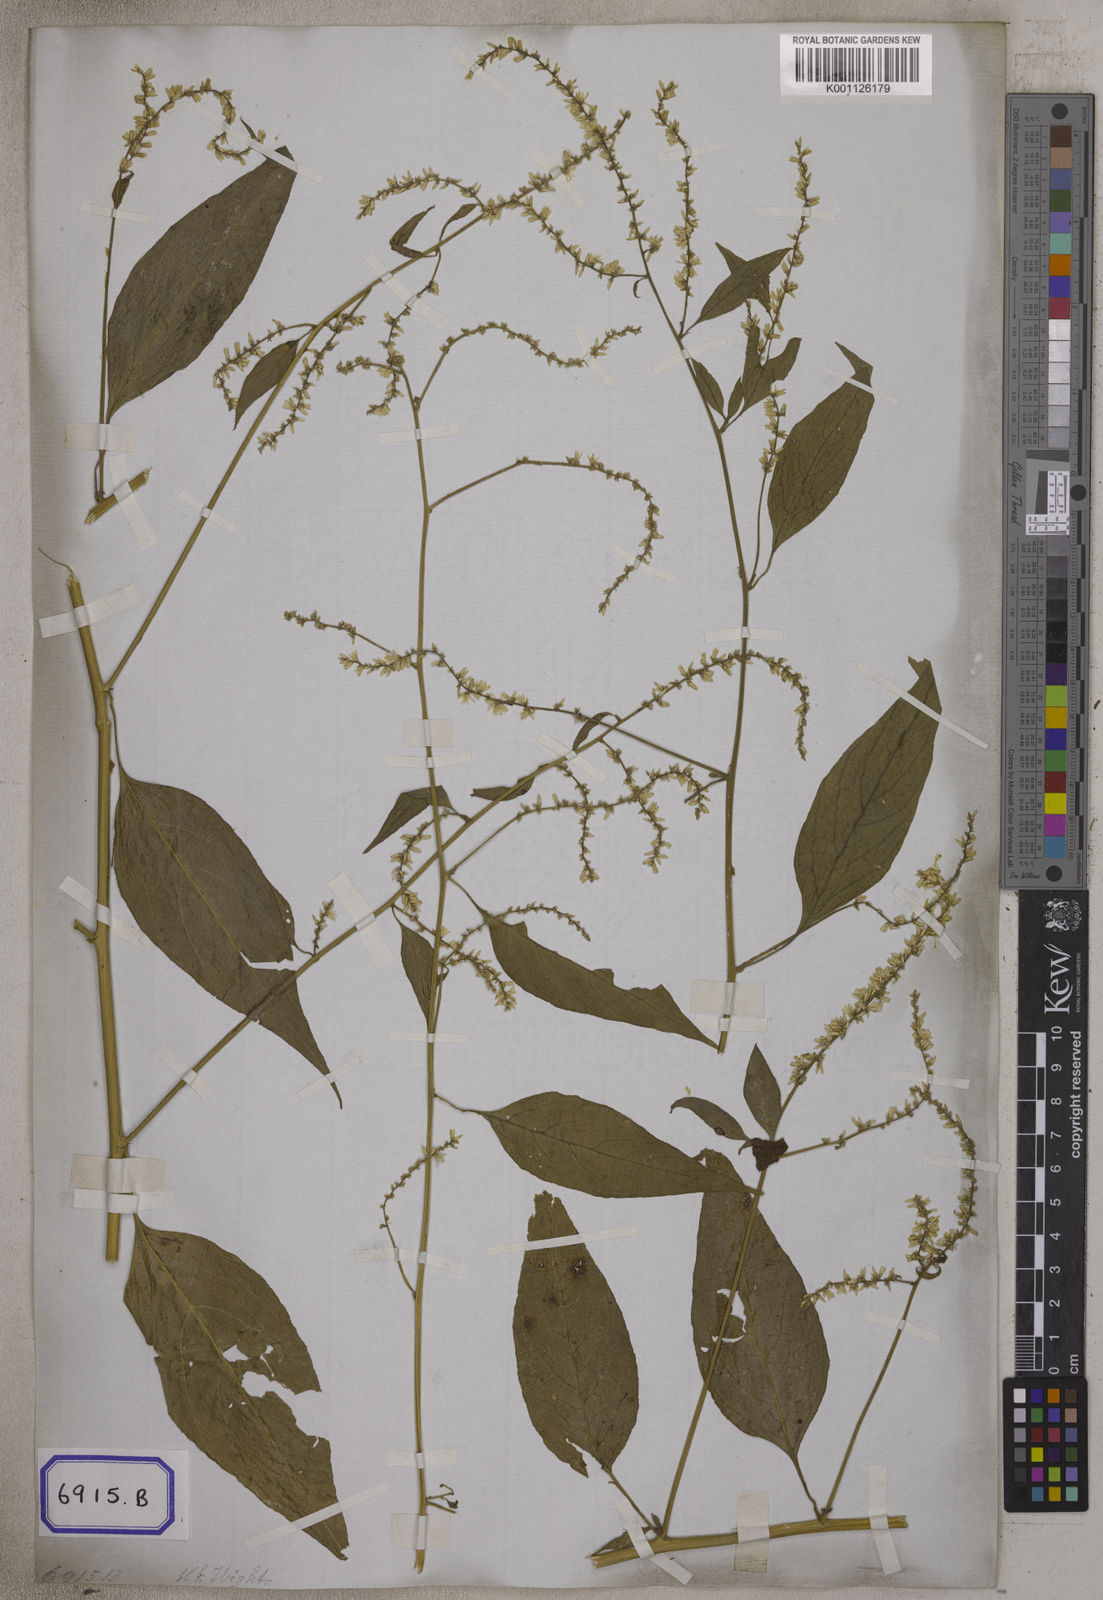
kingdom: Plantae
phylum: Tracheophyta
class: Magnoliopsida
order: Caryophyllales
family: Amaranthaceae
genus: Indobanalia
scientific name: Indobanalia thyrsiflora
